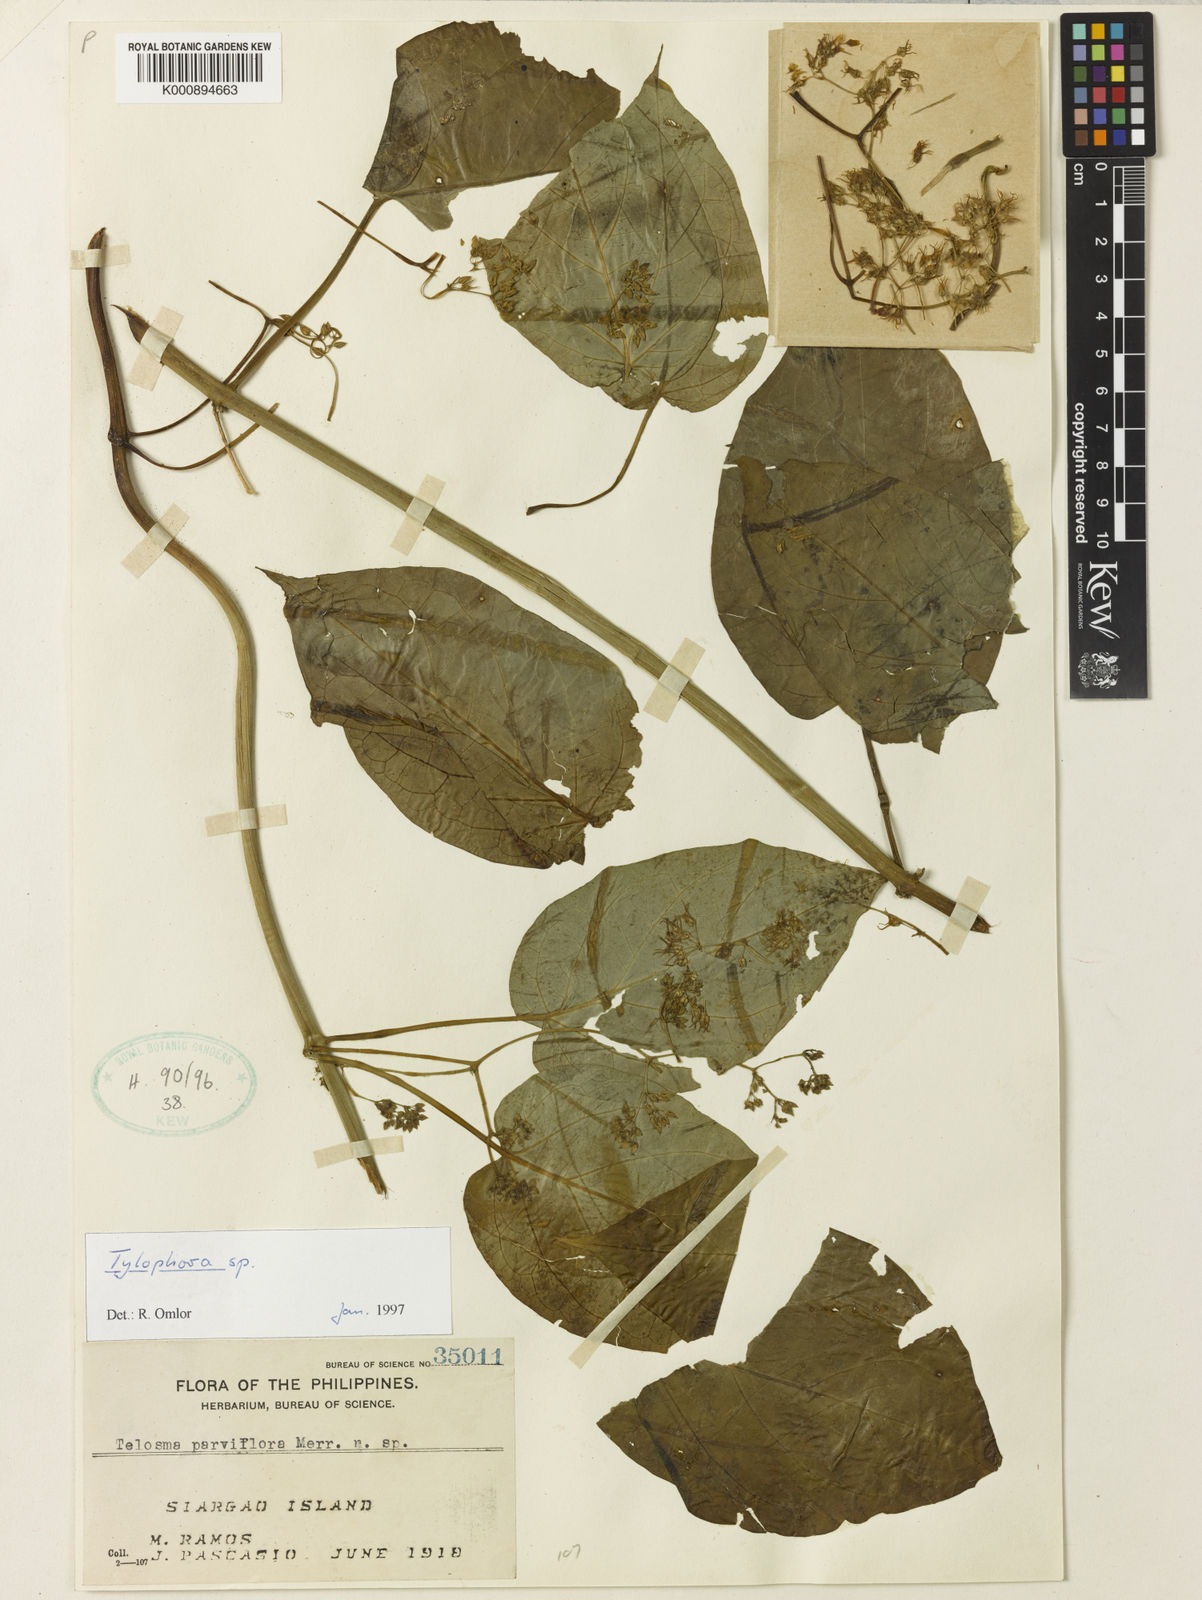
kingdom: Plantae
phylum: Tracheophyta
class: Magnoliopsida
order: Gentianales
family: Apocynaceae
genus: Vincetoxicum
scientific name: Vincetoxicum philippicum
